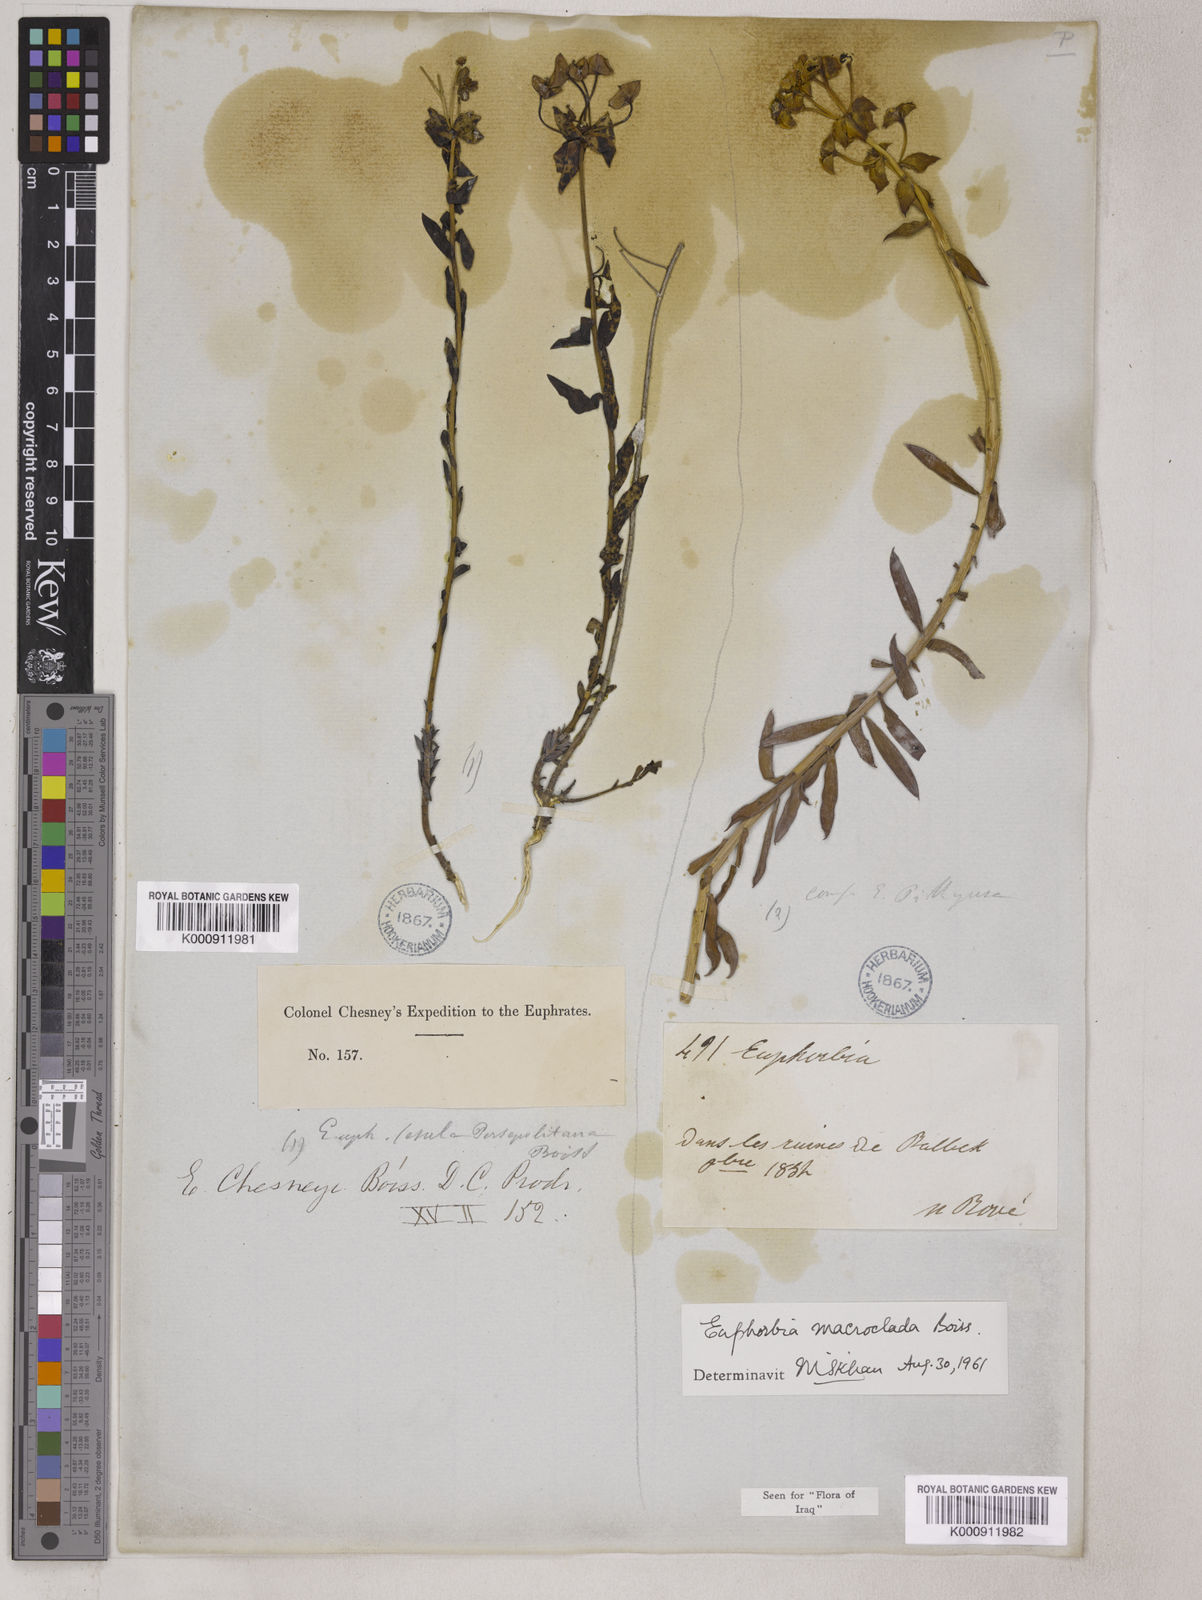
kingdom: Plantae
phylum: Tracheophyta
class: Magnoliopsida
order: Malpighiales
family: Euphorbiaceae
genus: Euphorbia
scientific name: Euphorbia cuspidata
